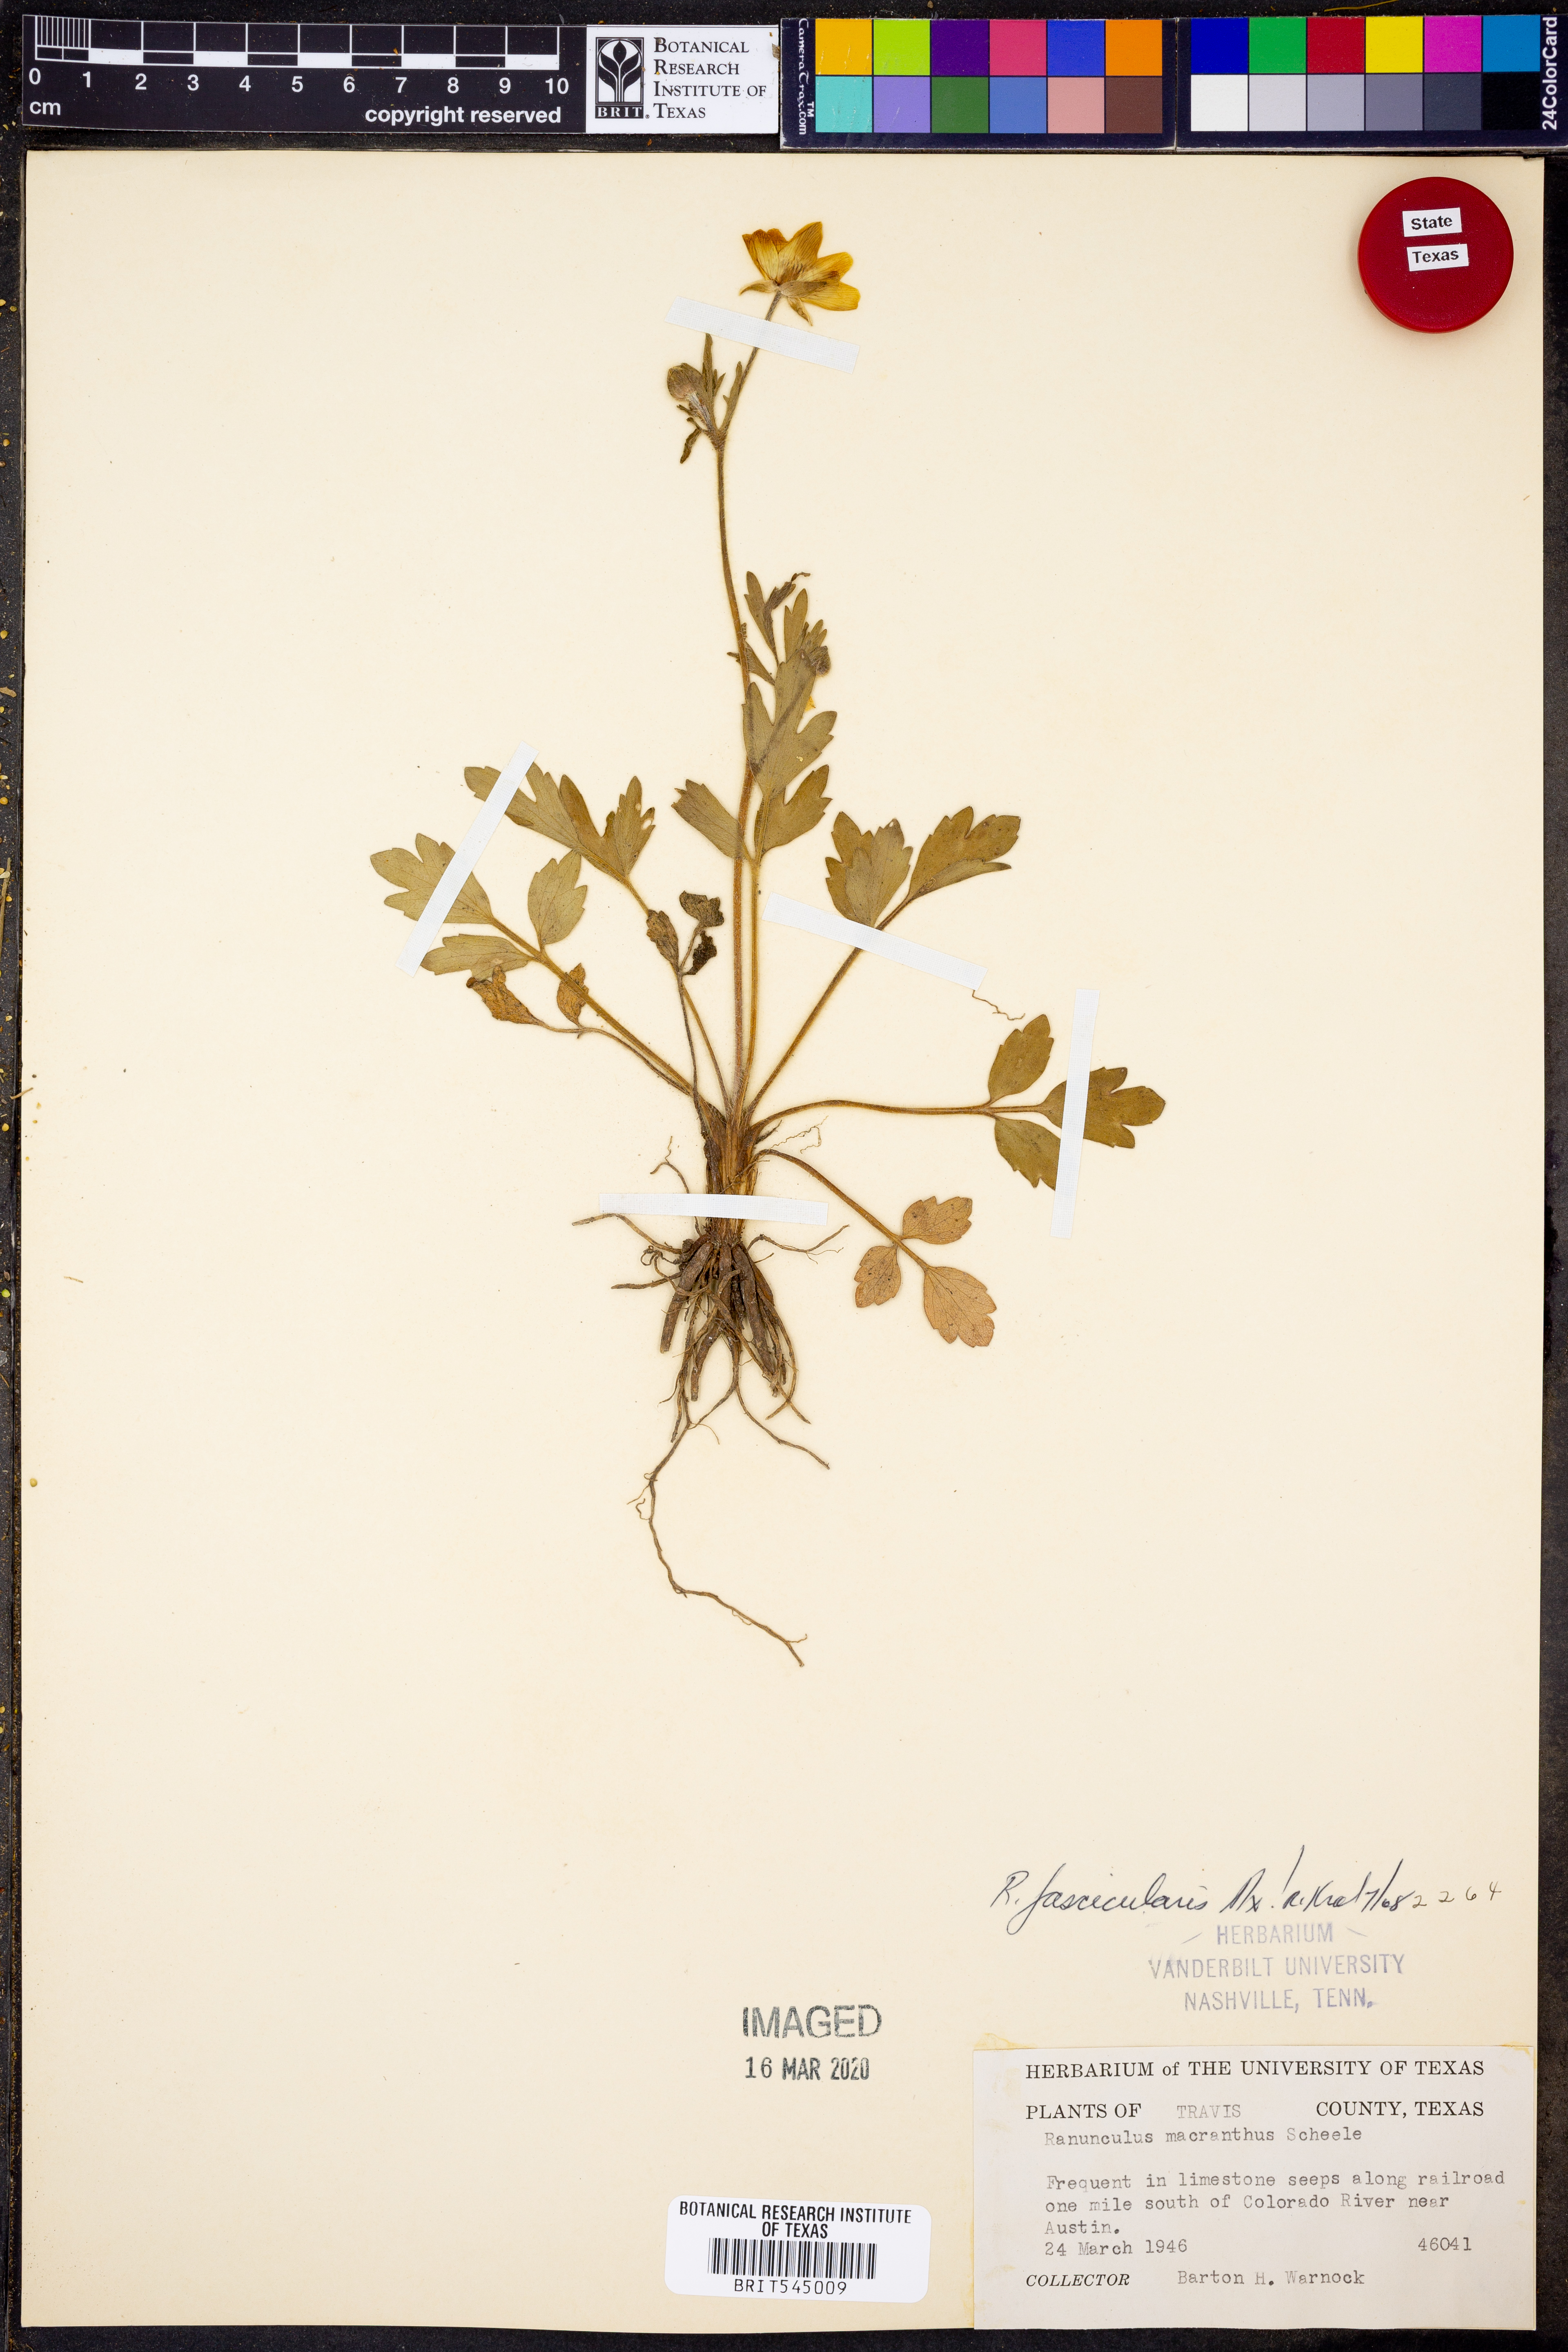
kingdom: Plantae
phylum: Tracheophyta
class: Magnoliopsida
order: Ranunculales
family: Ranunculaceae
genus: Ranunculus
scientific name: Ranunculus fascicularis
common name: Early buttercup
